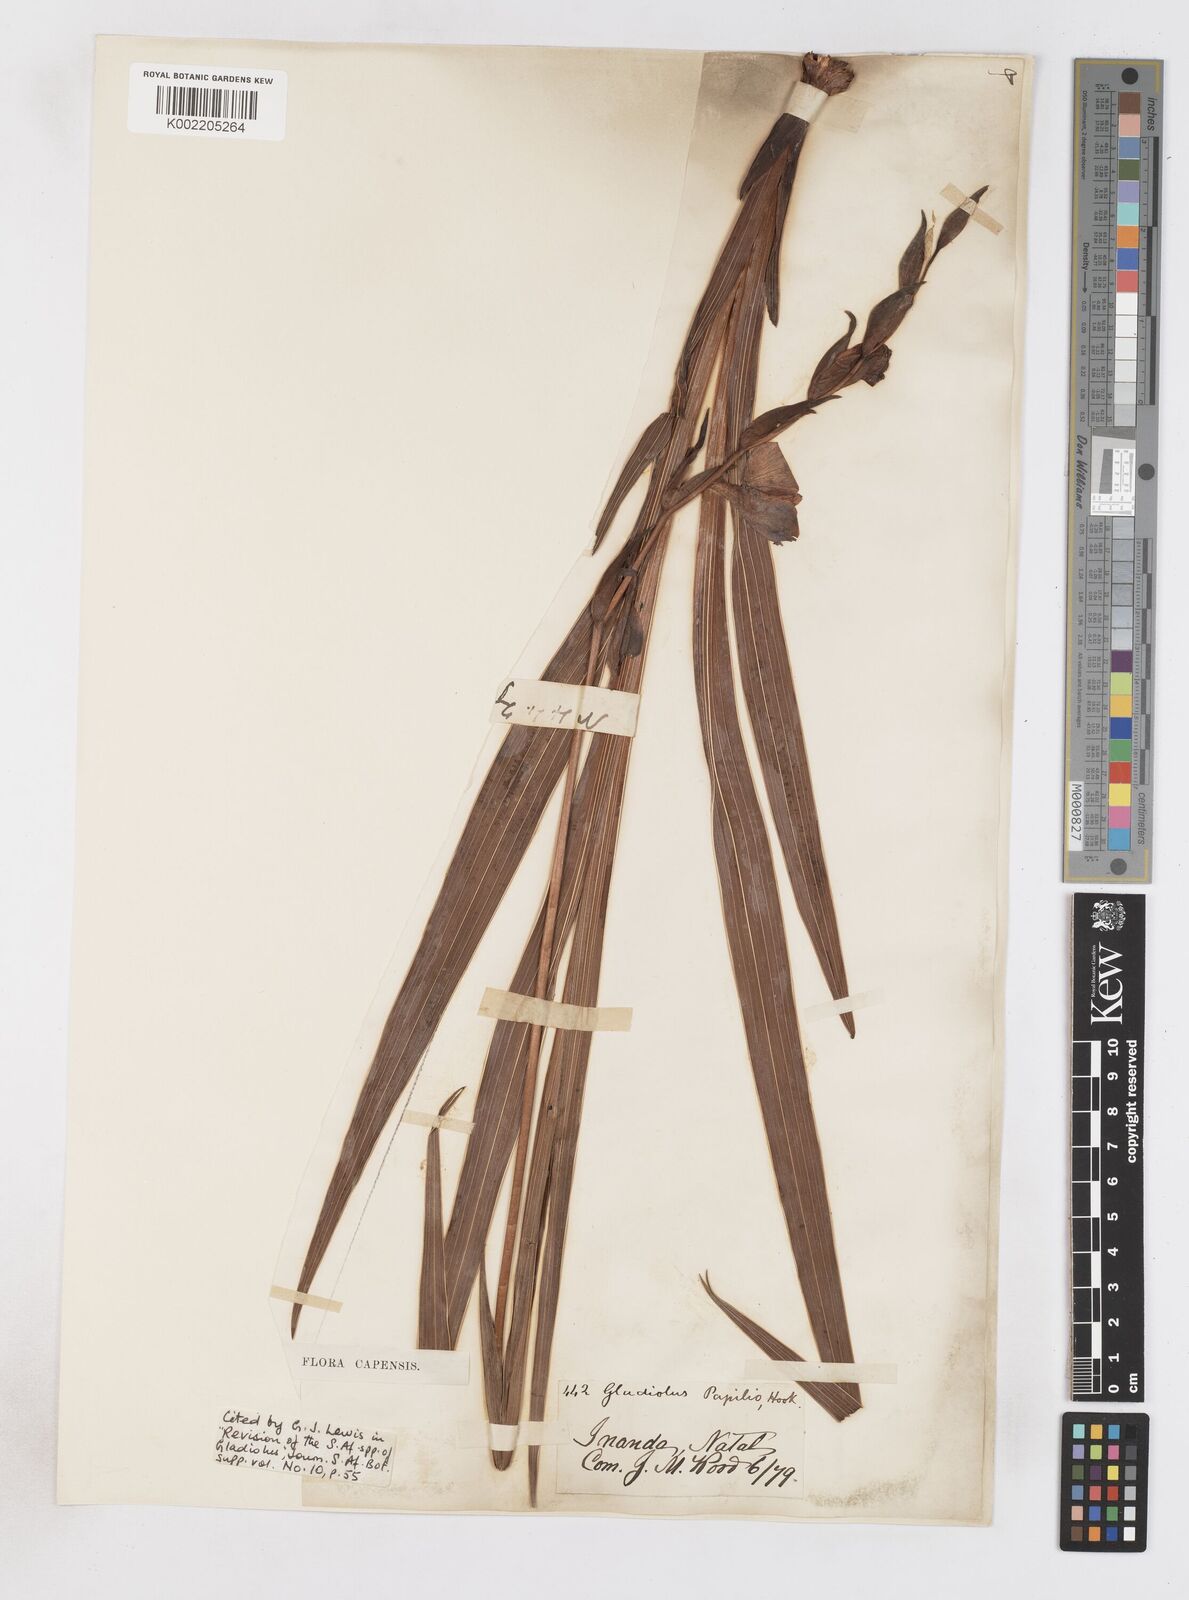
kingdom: Plantae
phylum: Tracheophyta
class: Liliopsida
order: Asparagales
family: Iridaceae
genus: Gladiolus
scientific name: Gladiolus papilio
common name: Goldblotch gladiolus
